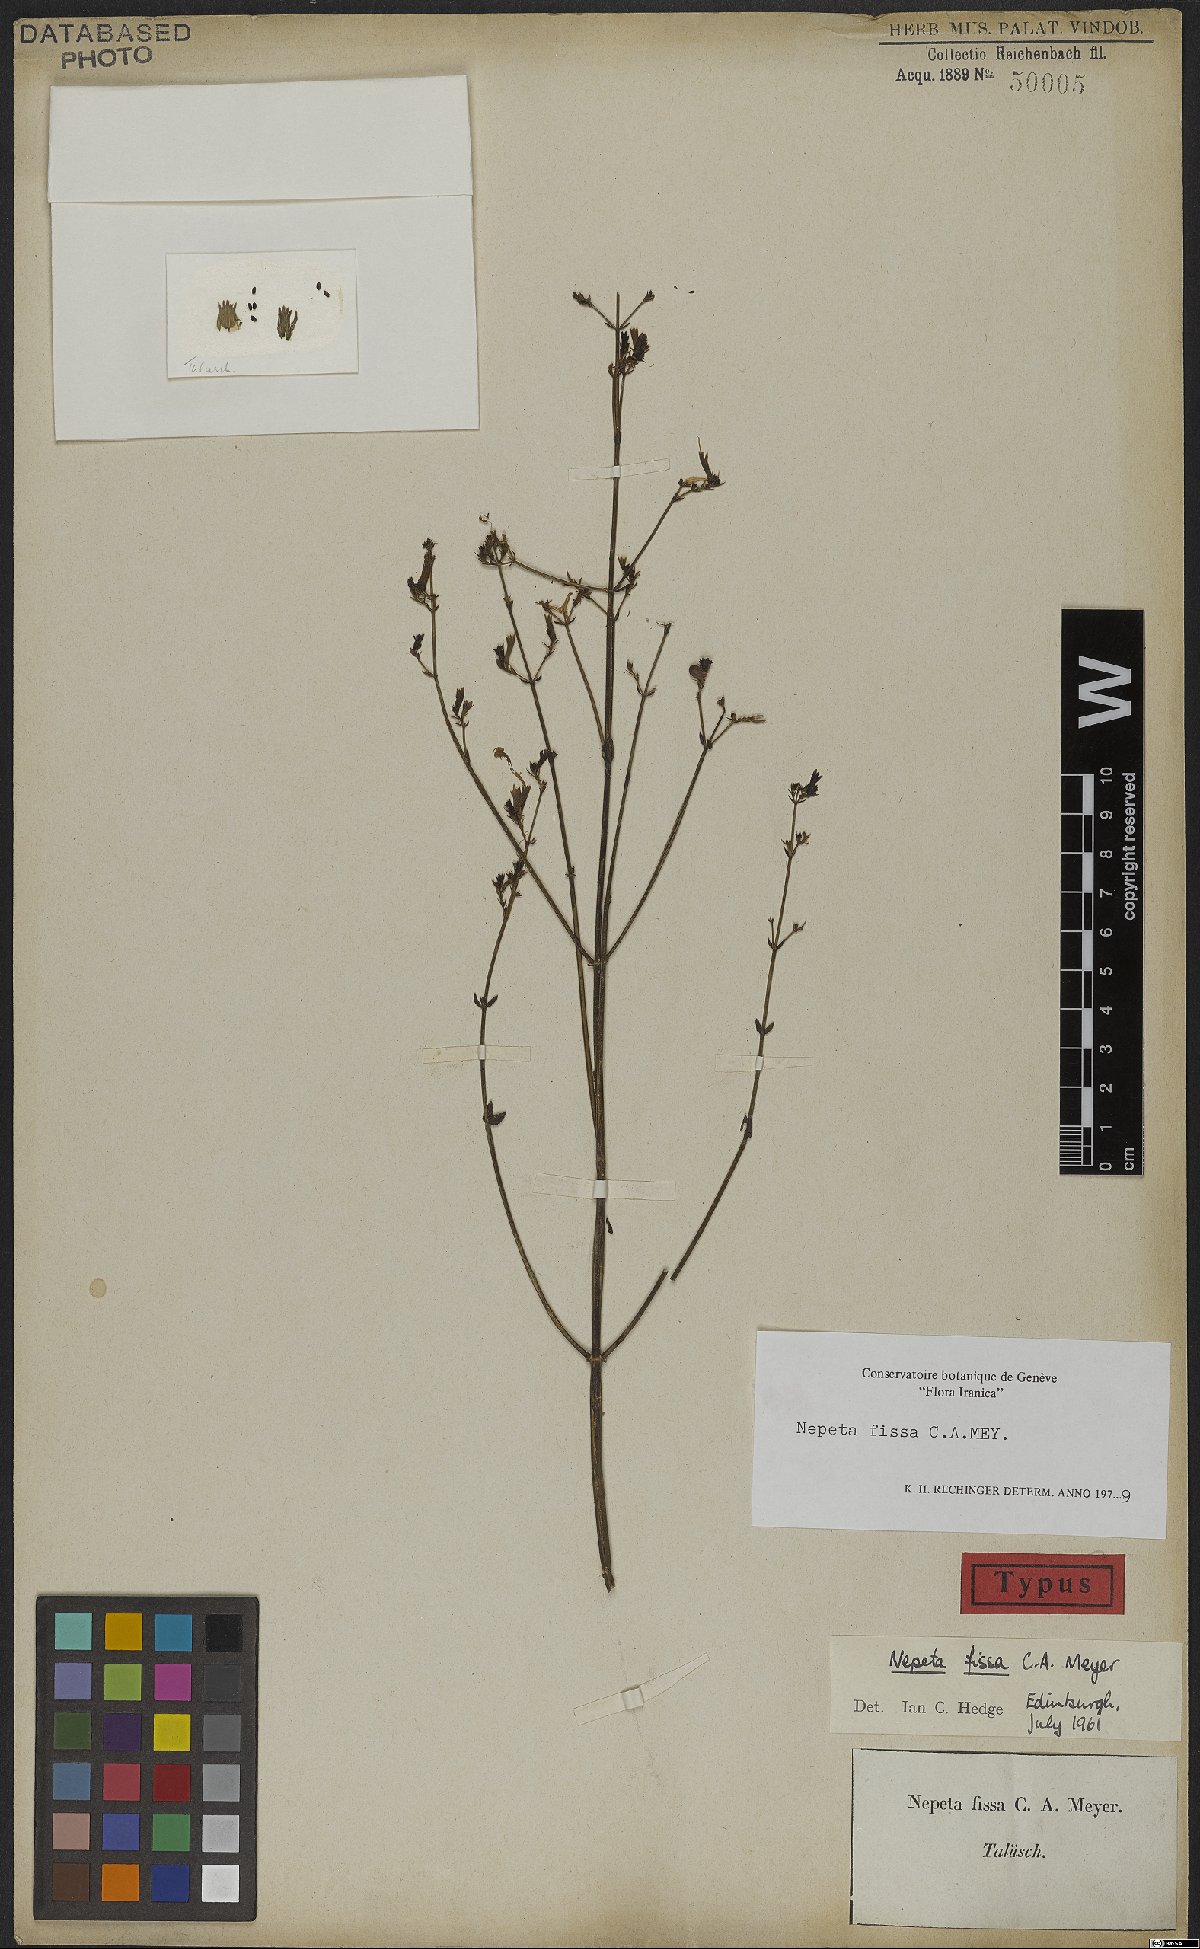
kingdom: Plantae
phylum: Tracheophyta
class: Magnoliopsida
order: Lamiales
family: Lamiaceae
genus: Nepeta
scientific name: Nepeta teucriifolia
